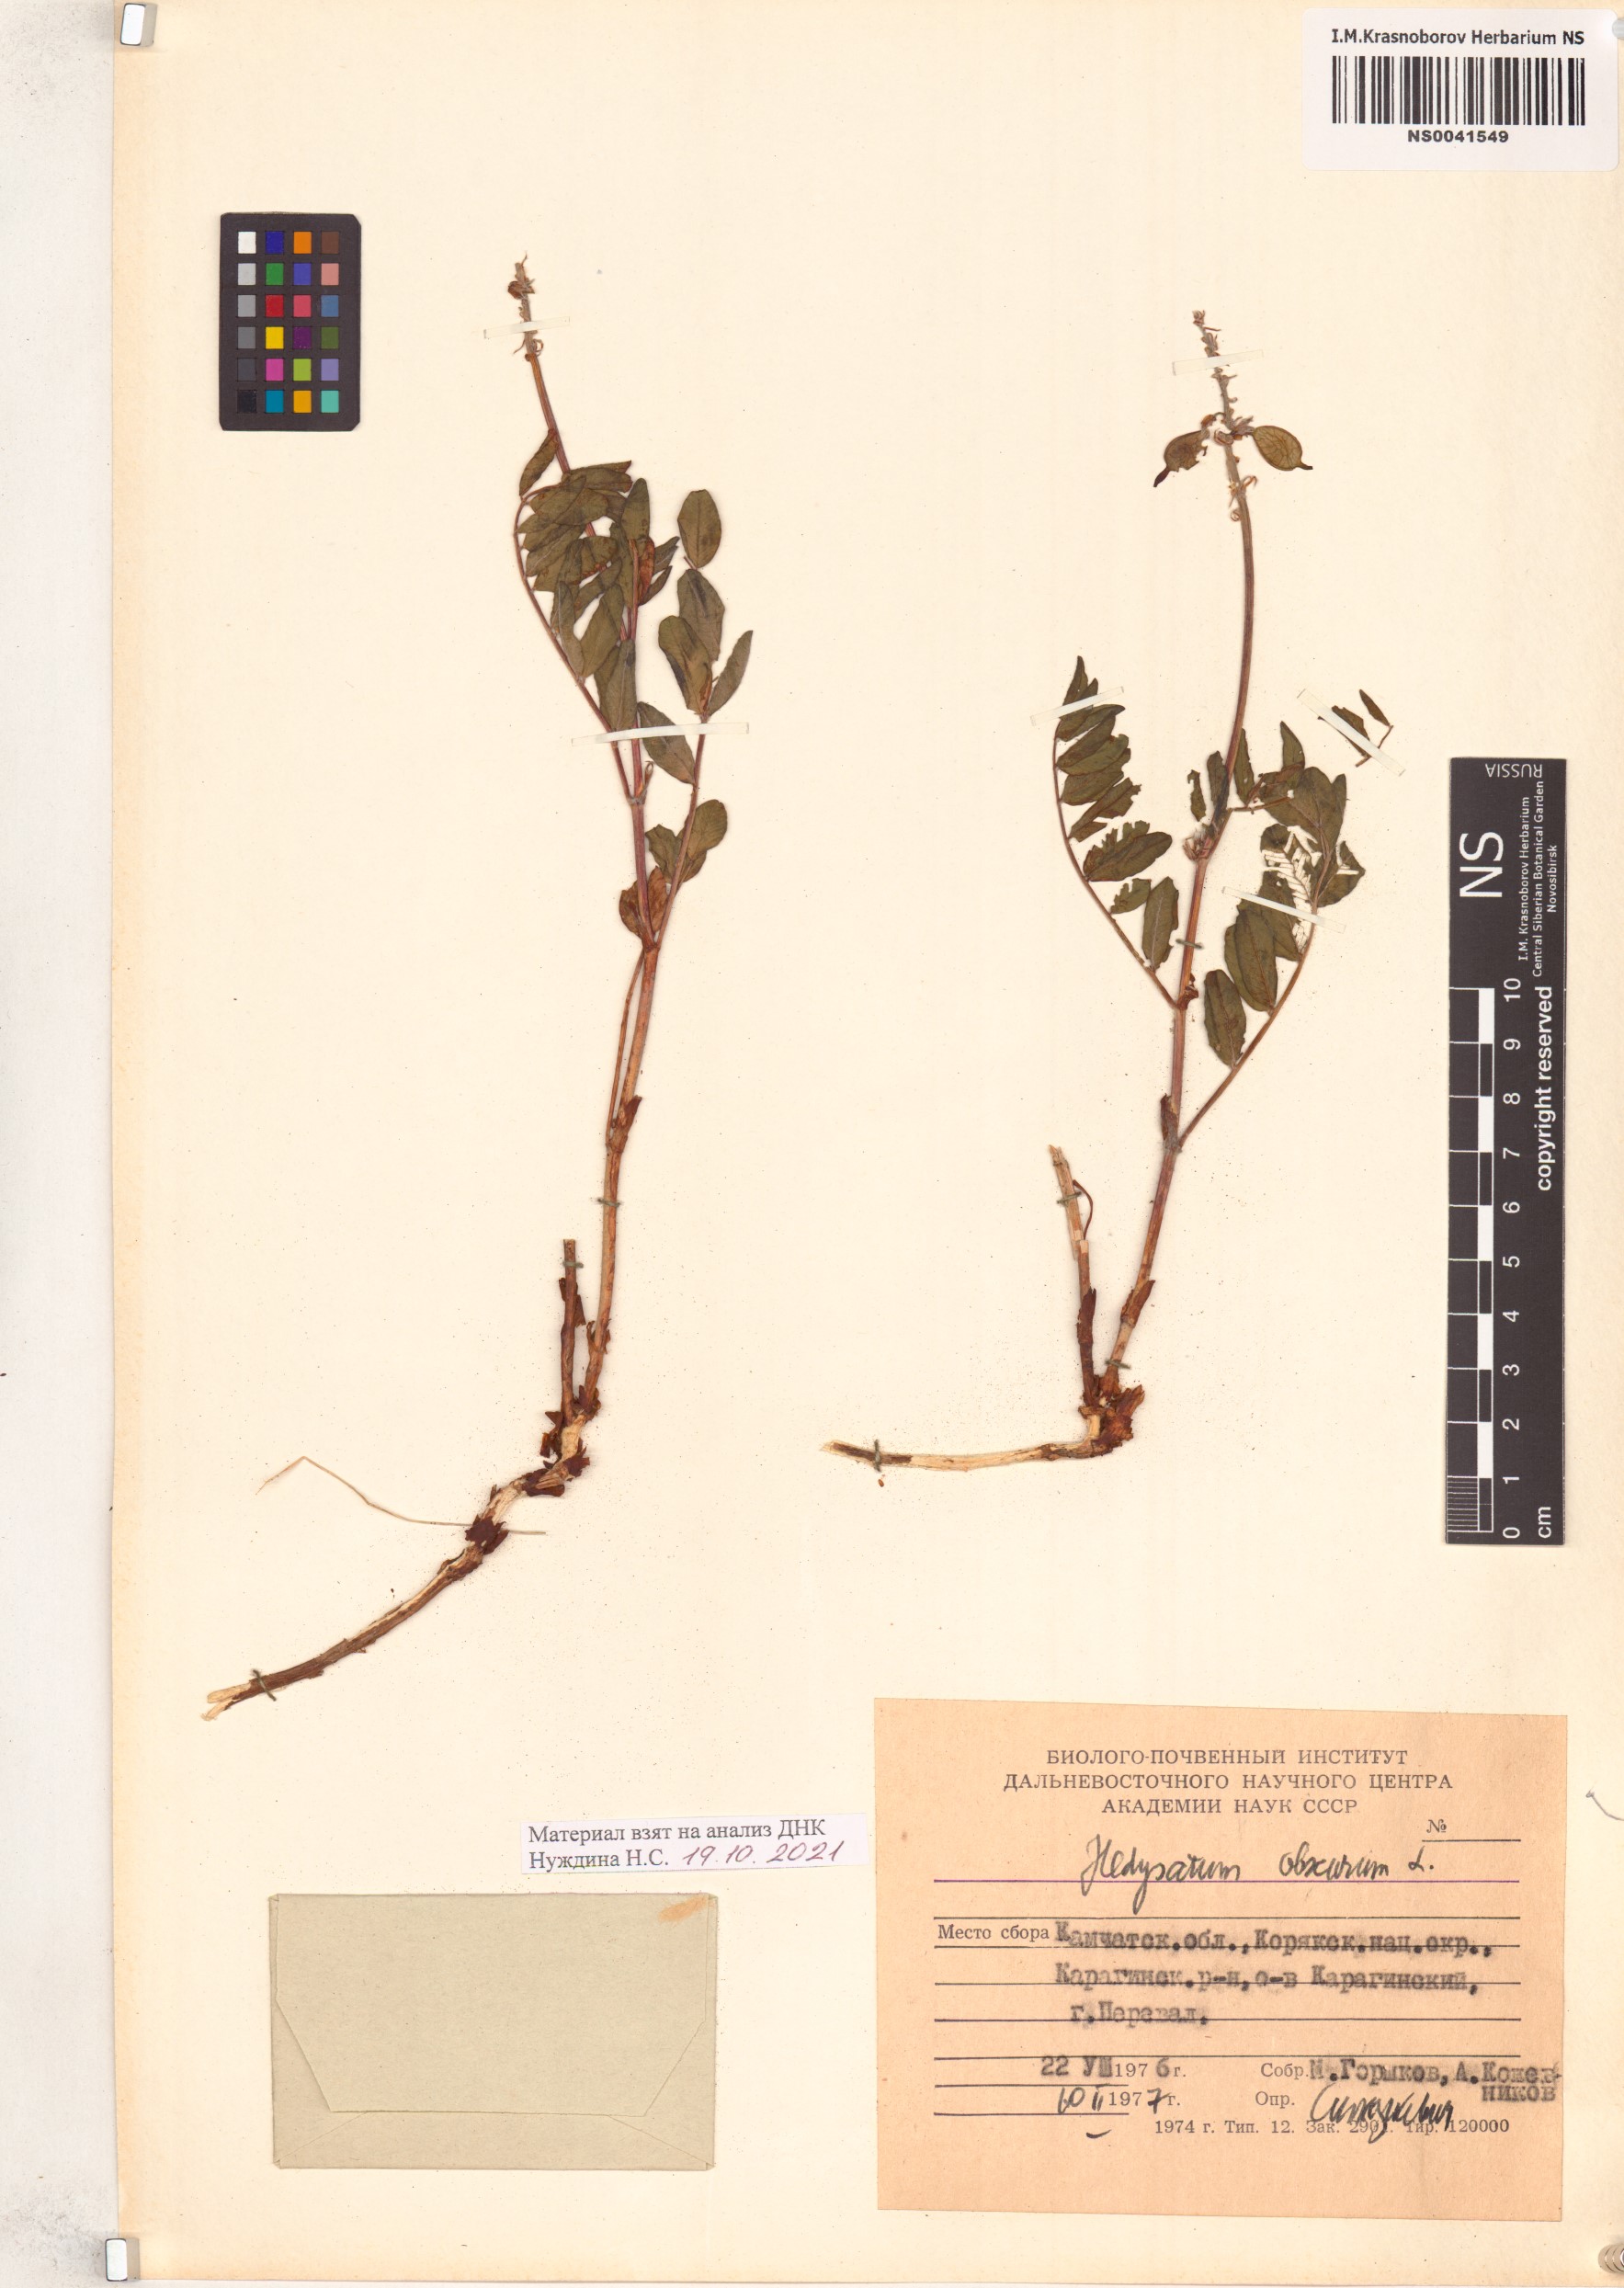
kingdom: Plantae
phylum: Tracheophyta
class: Magnoliopsida
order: Fabales
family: Fabaceae
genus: Hedysarum
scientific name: Hedysarum hedysaroides
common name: Alpine french-honeysuckle
